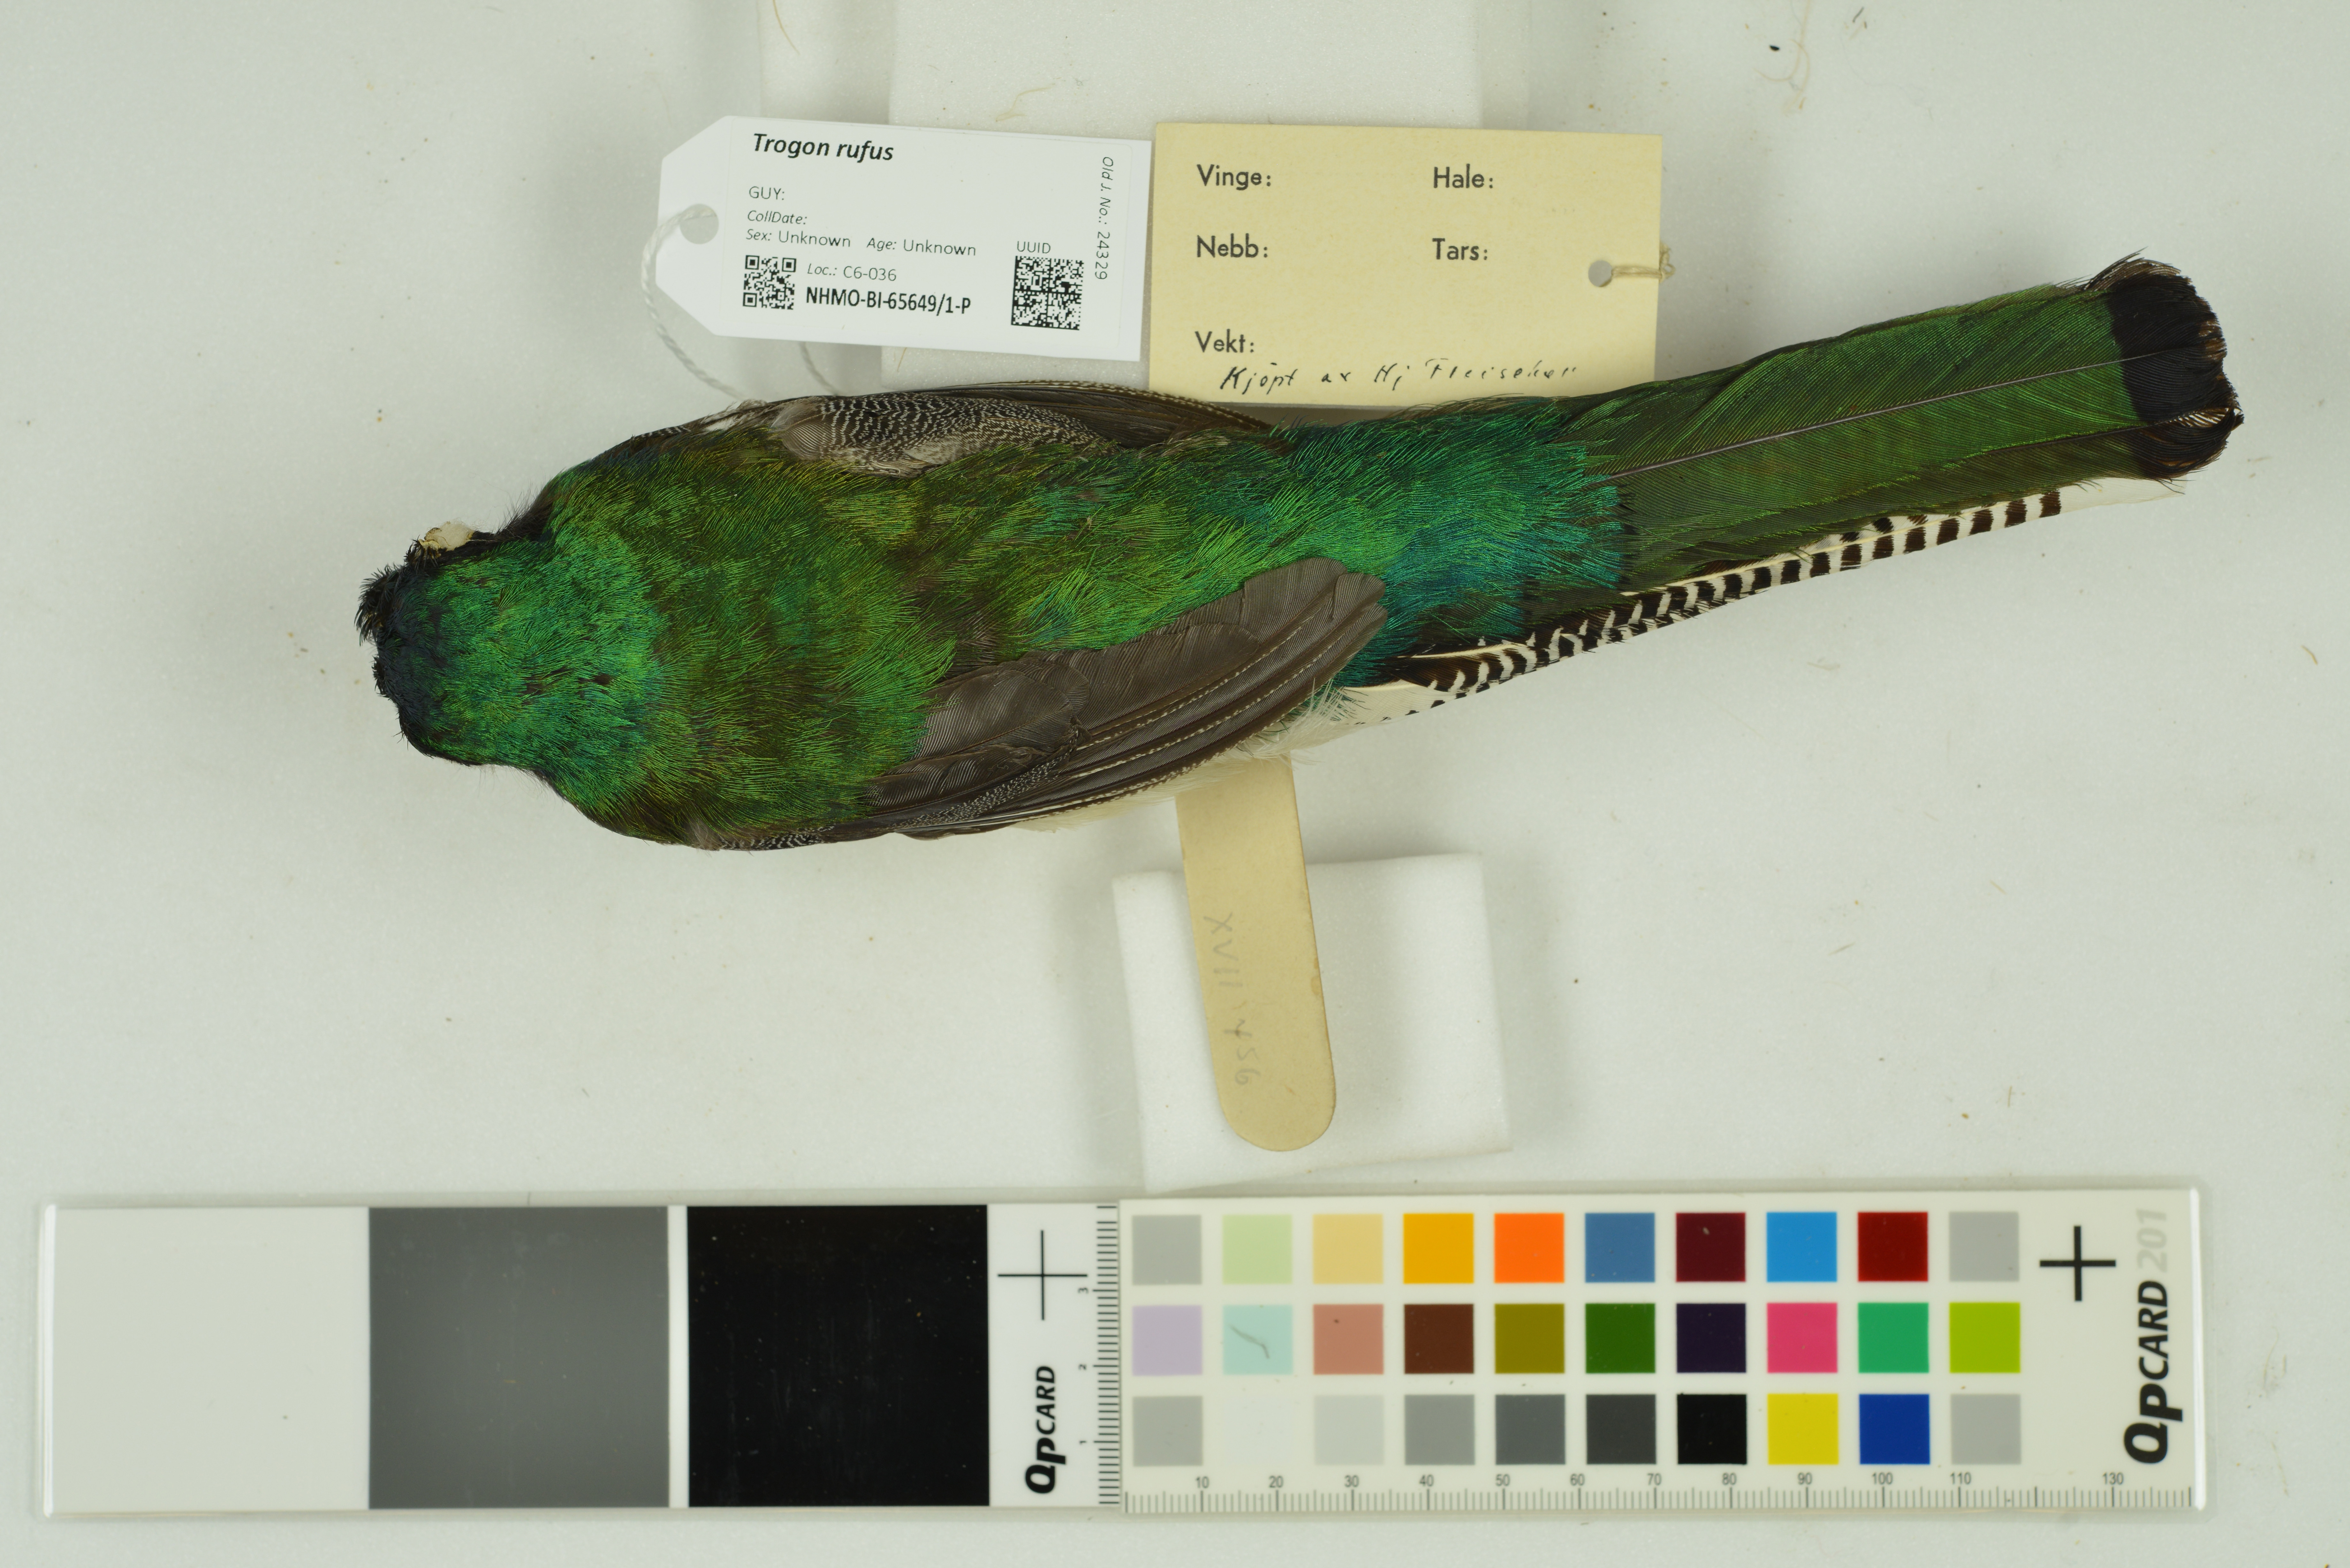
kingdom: Animalia
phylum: Chordata
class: Aves
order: Trogoniformes
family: Trogonidae
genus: Trogon
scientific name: Trogon rufus
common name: Black-throated trogon
